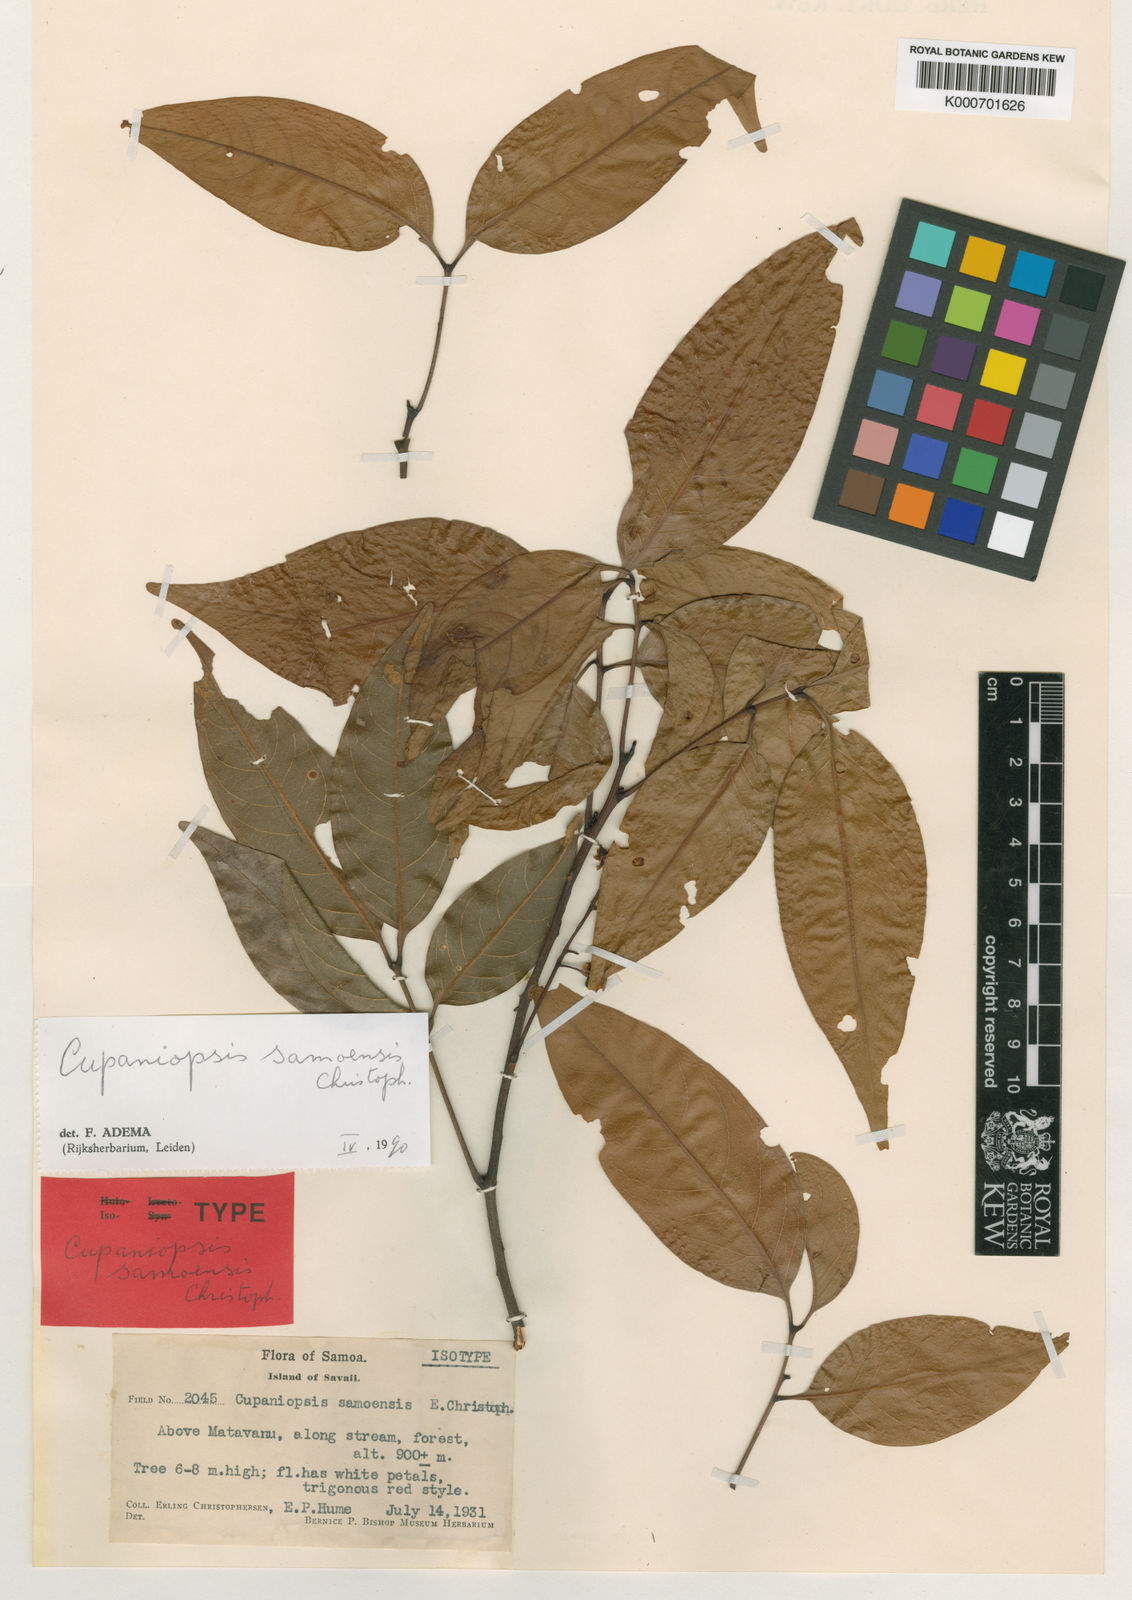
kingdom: Plantae
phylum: Tracheophyta
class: Magnoliopsida
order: Sapindales
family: Sapindaceae
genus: Lepidocupania
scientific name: Lepidocupania samoensis
